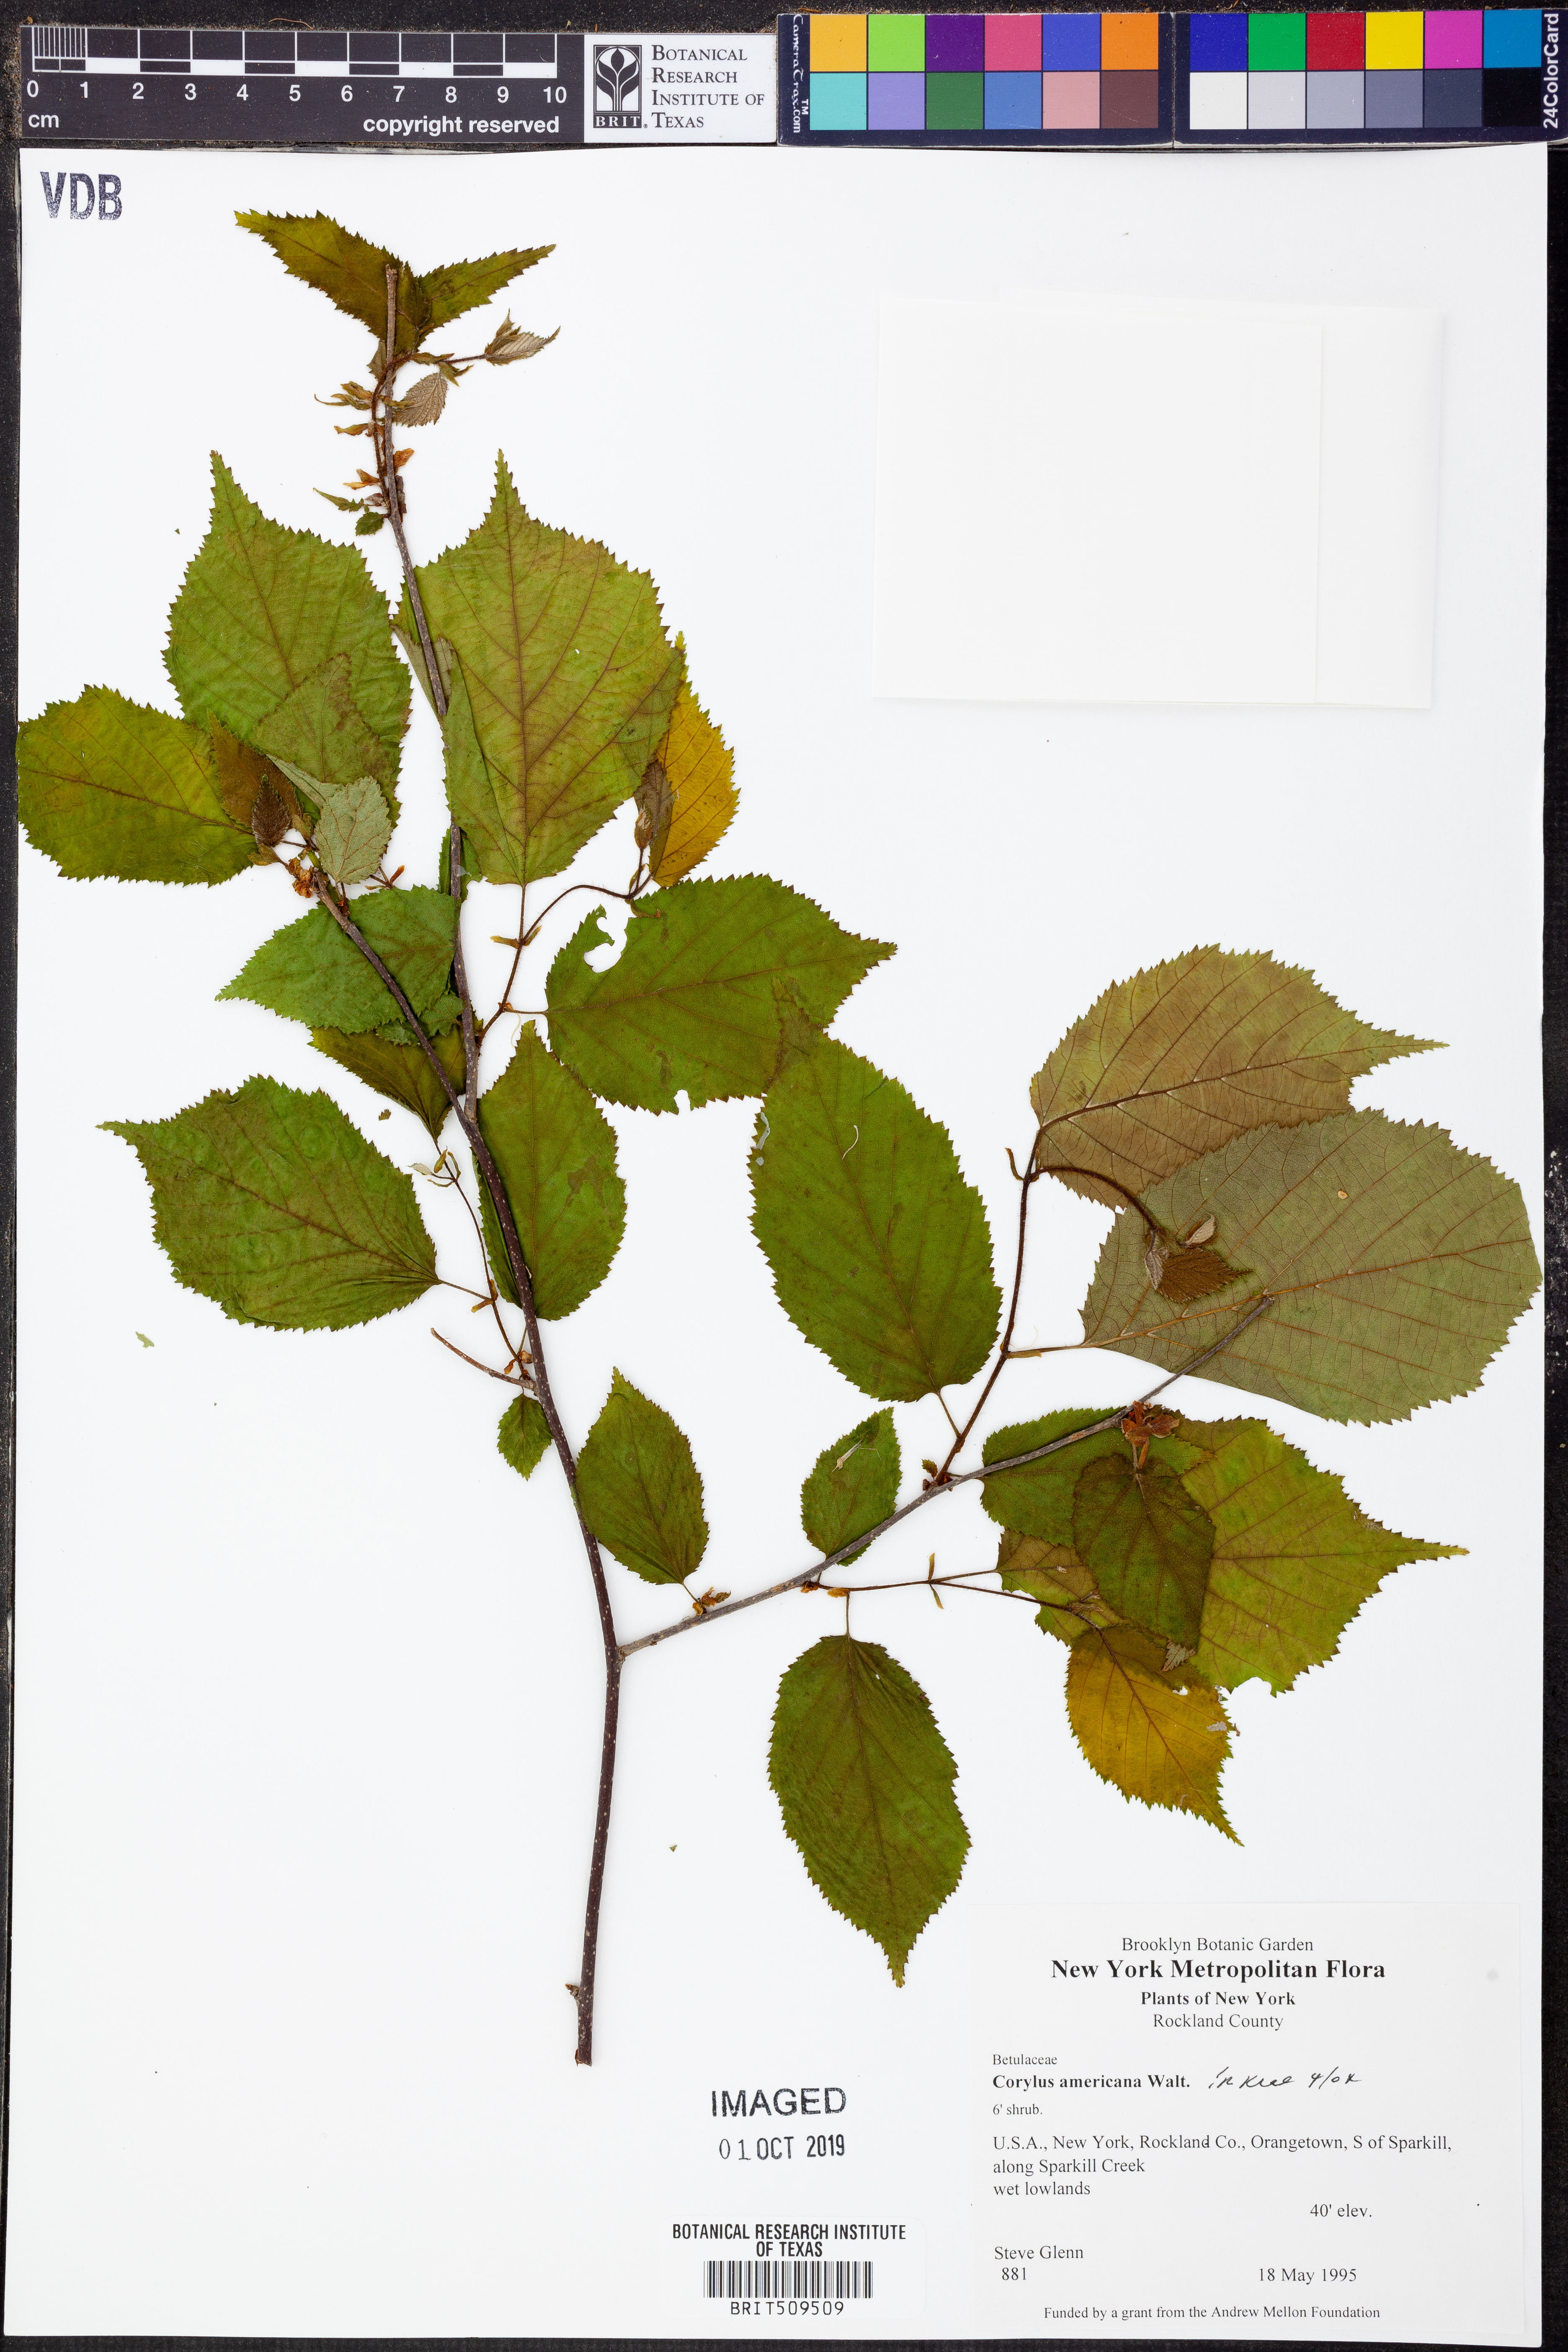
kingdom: Plantae
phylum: Tracheophyta
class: Magnoliopsida
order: Fagales
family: Betulaceae
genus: Corylus
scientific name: Corylus americana
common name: American hazel
